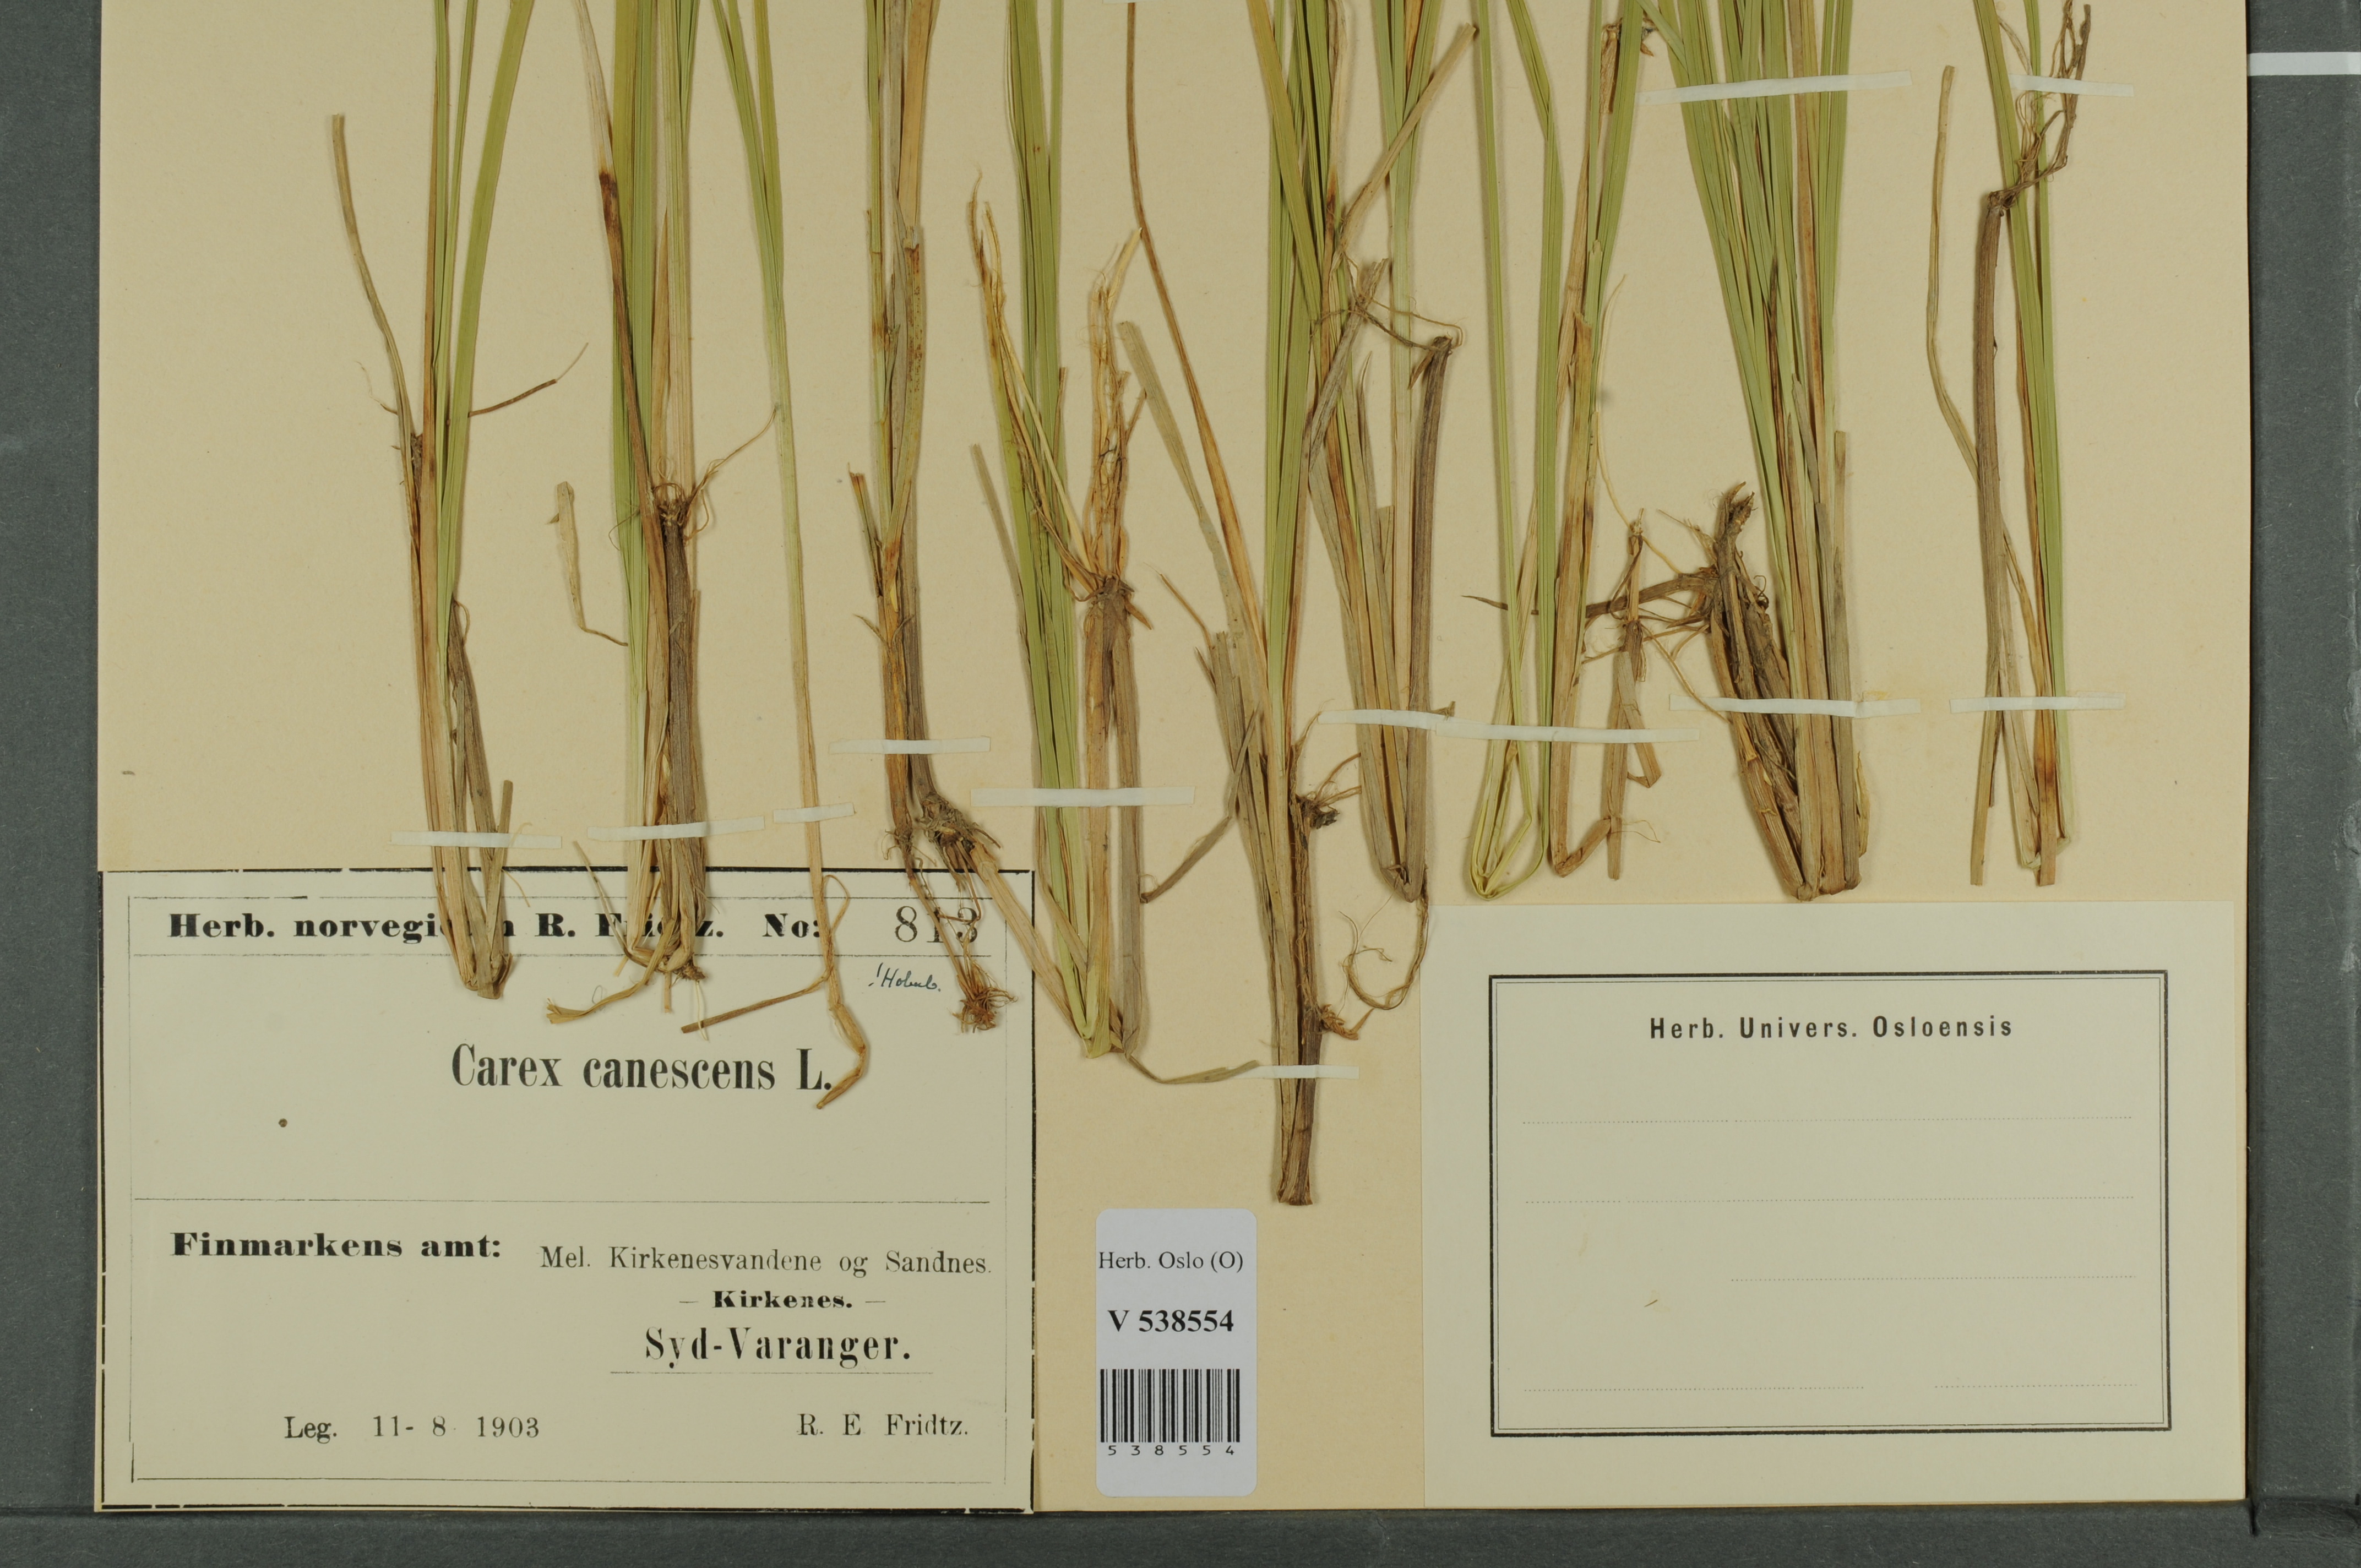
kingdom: Plantae
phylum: Tracheophyta
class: Liliopsida
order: Poales
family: Cyperaceae
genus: Carex
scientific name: Carex canescens
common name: White sedge
